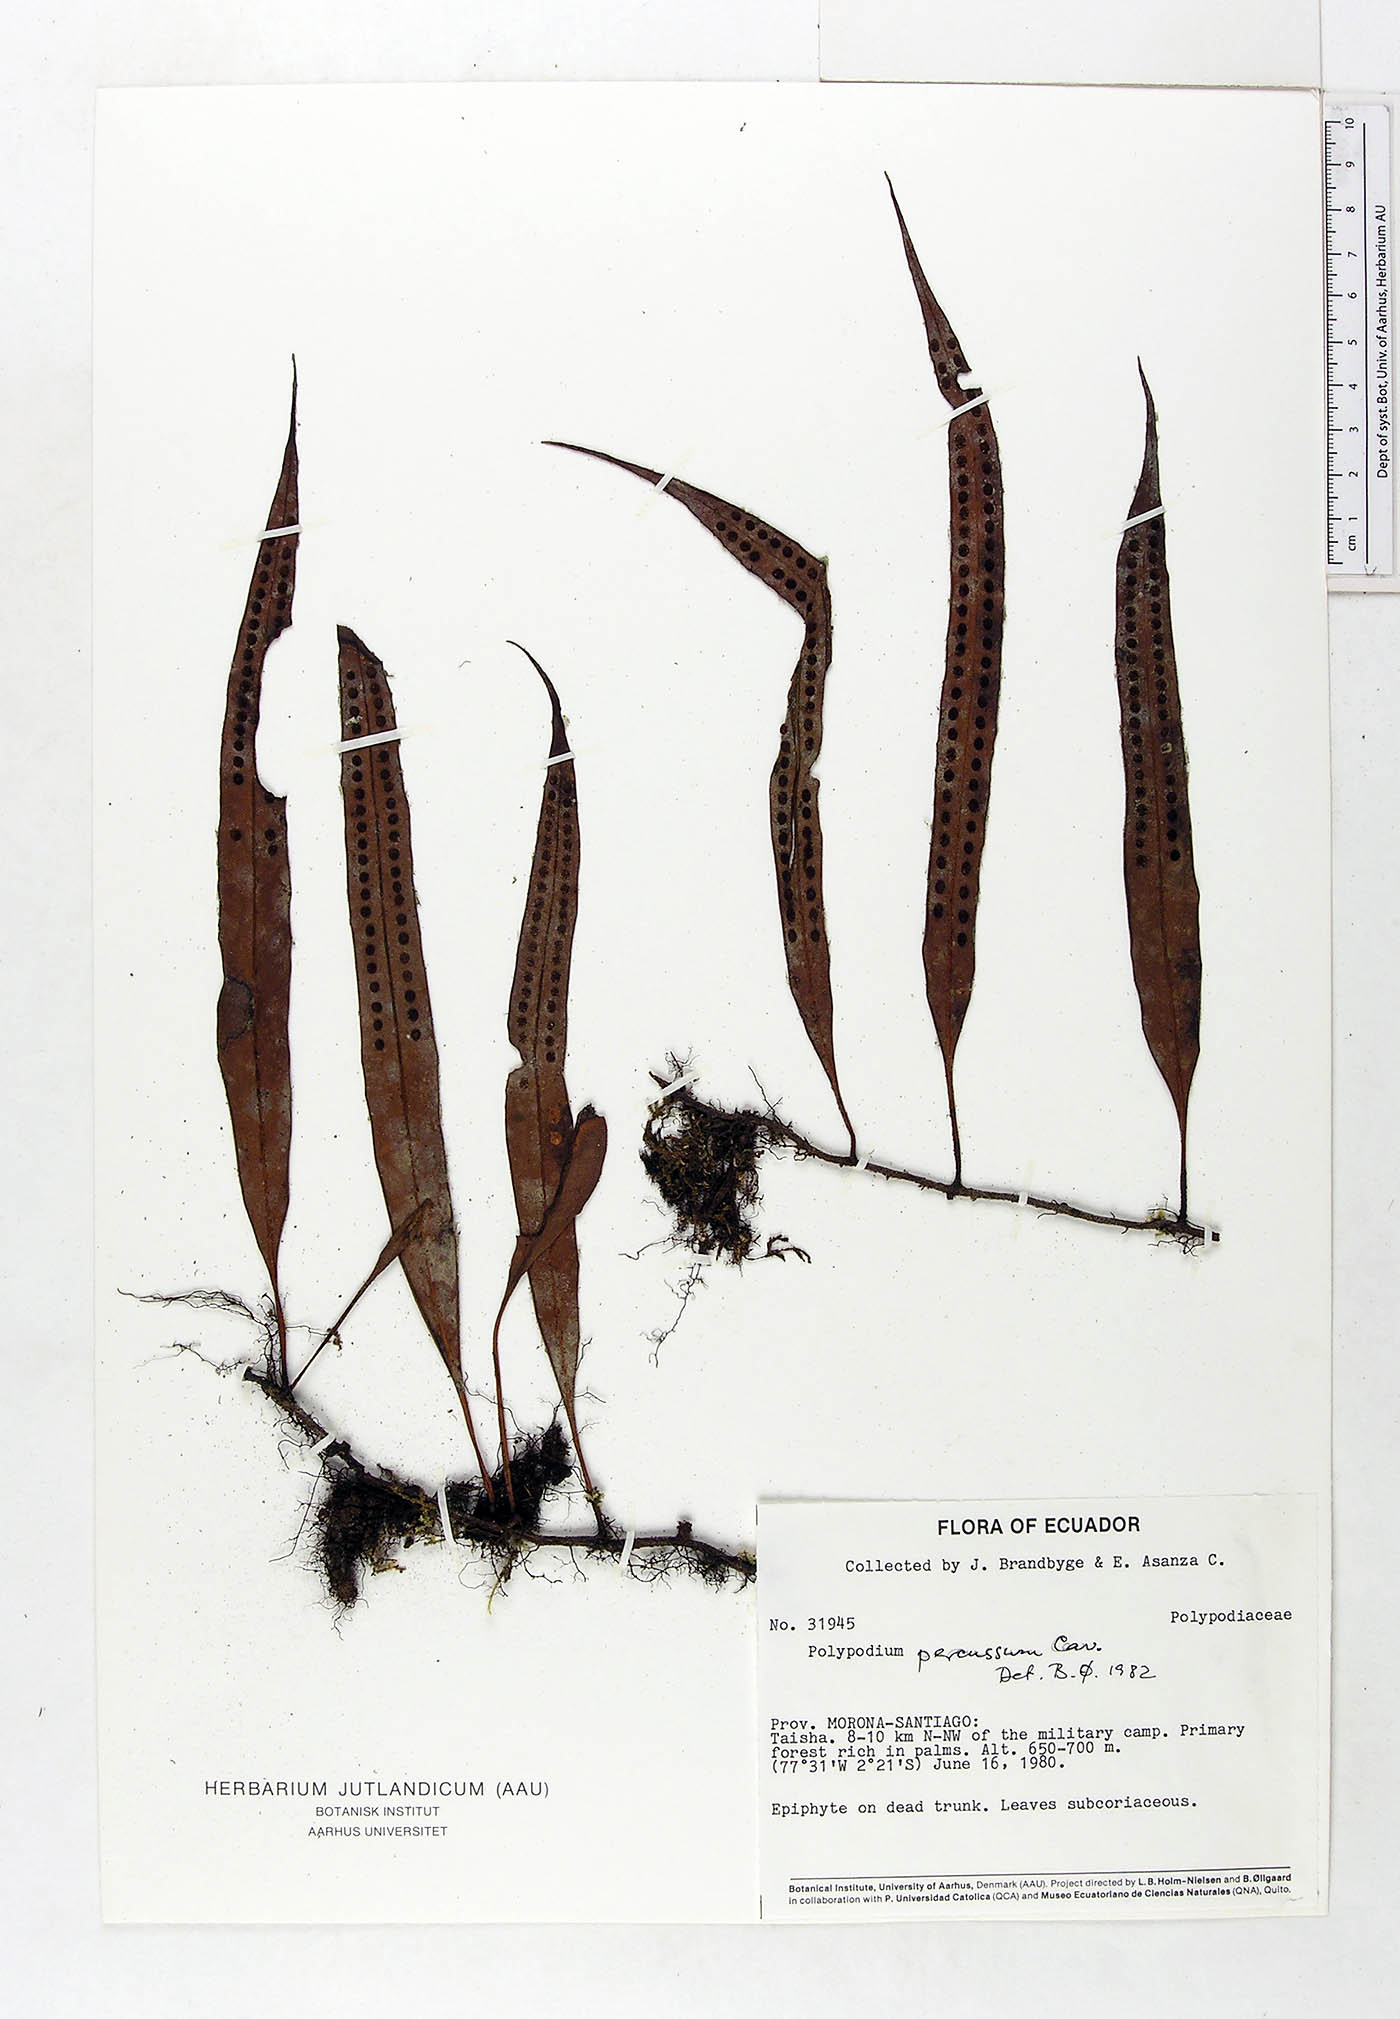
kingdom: Plantae
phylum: Tracheophyta
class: Polypodiopsida
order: Polypodiales
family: Polypodiaceae
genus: Microgramma
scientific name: Microgramma percussa
